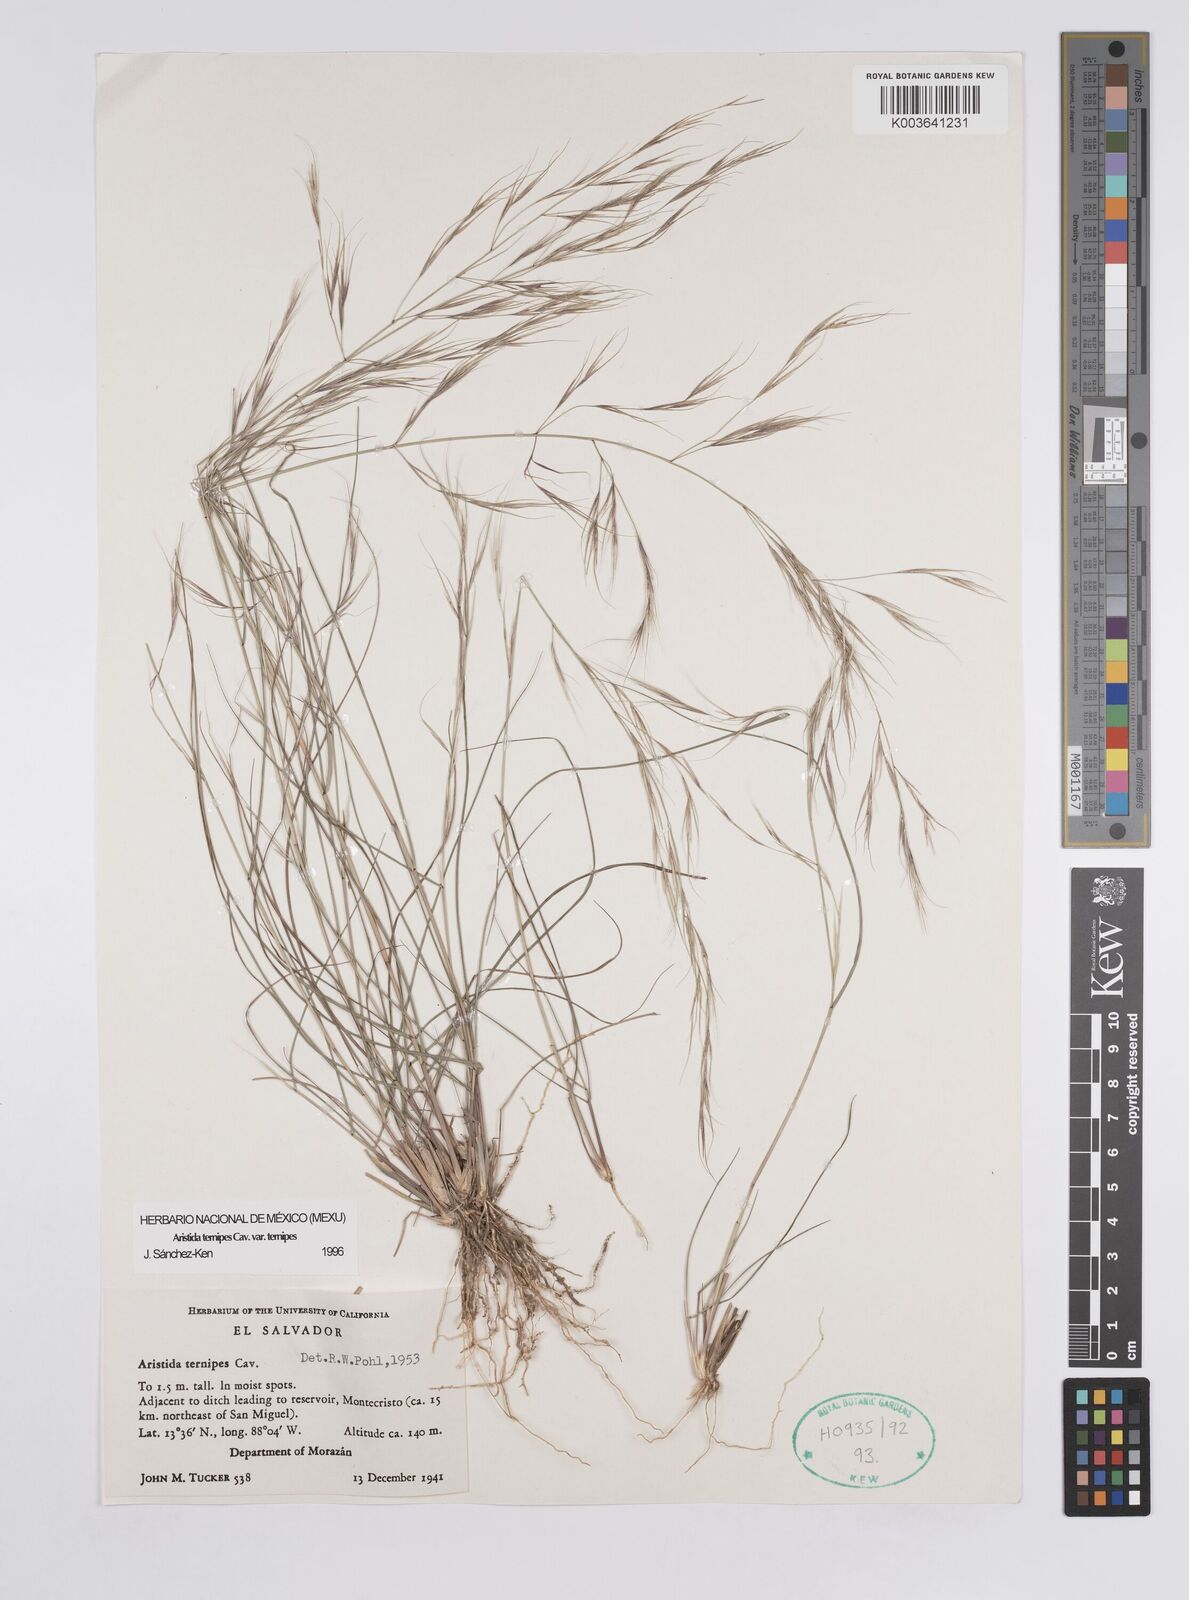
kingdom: Plantae
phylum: Tracheophyta
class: Liliopsida
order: Poales
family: Poaceae
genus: Aristida
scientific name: Aristida
